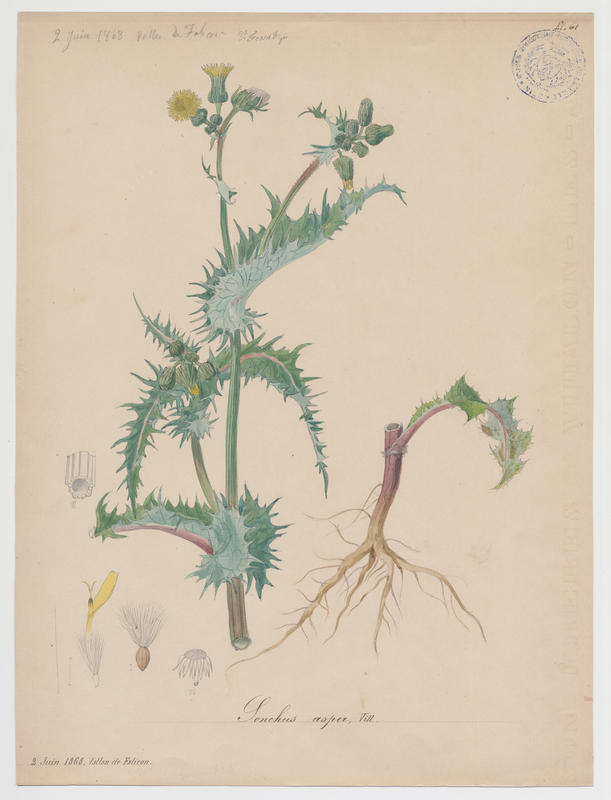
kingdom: Plantae
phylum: Tracheophyta
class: Magnoliopsida
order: Asterales
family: Asteraceae
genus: Sonchus
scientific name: Sonchus asper
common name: Prickly sow-thistle
